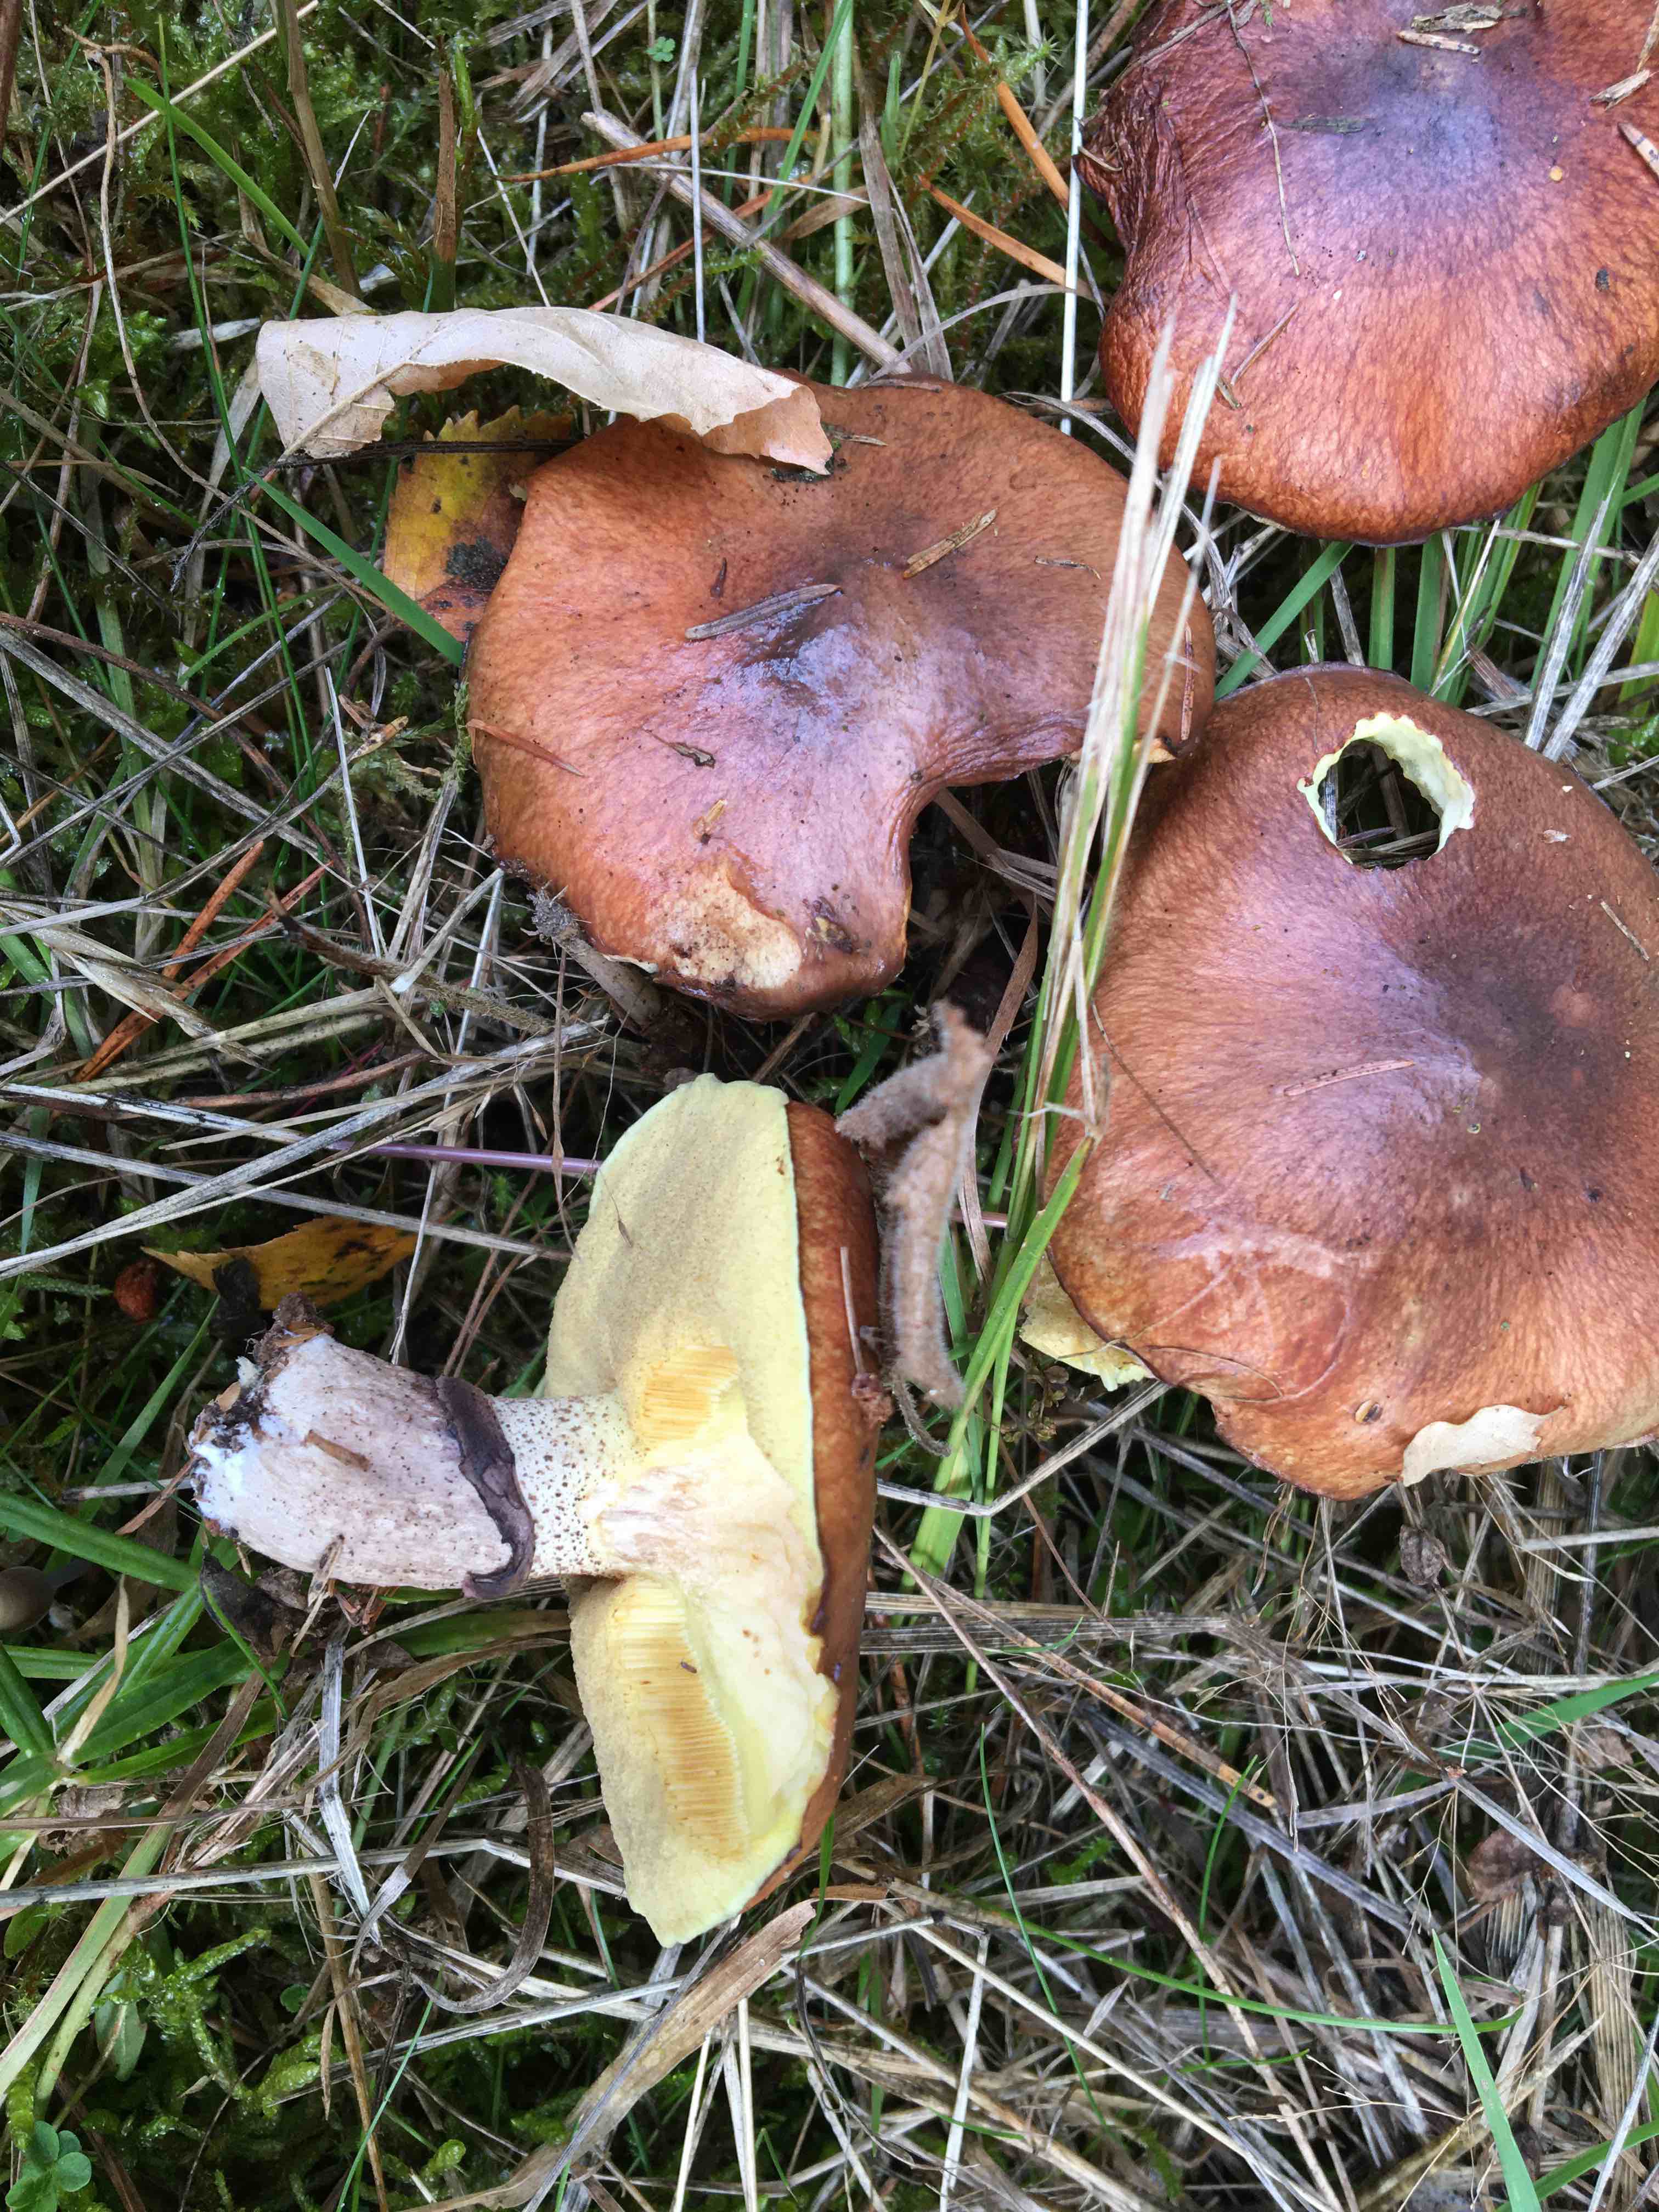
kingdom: Fungi
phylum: Basidiomycota
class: Agaricomycetes
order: Boletales
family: Suillaceae
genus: Suillus
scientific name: Suillus luteus
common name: brungul slimrørhat
